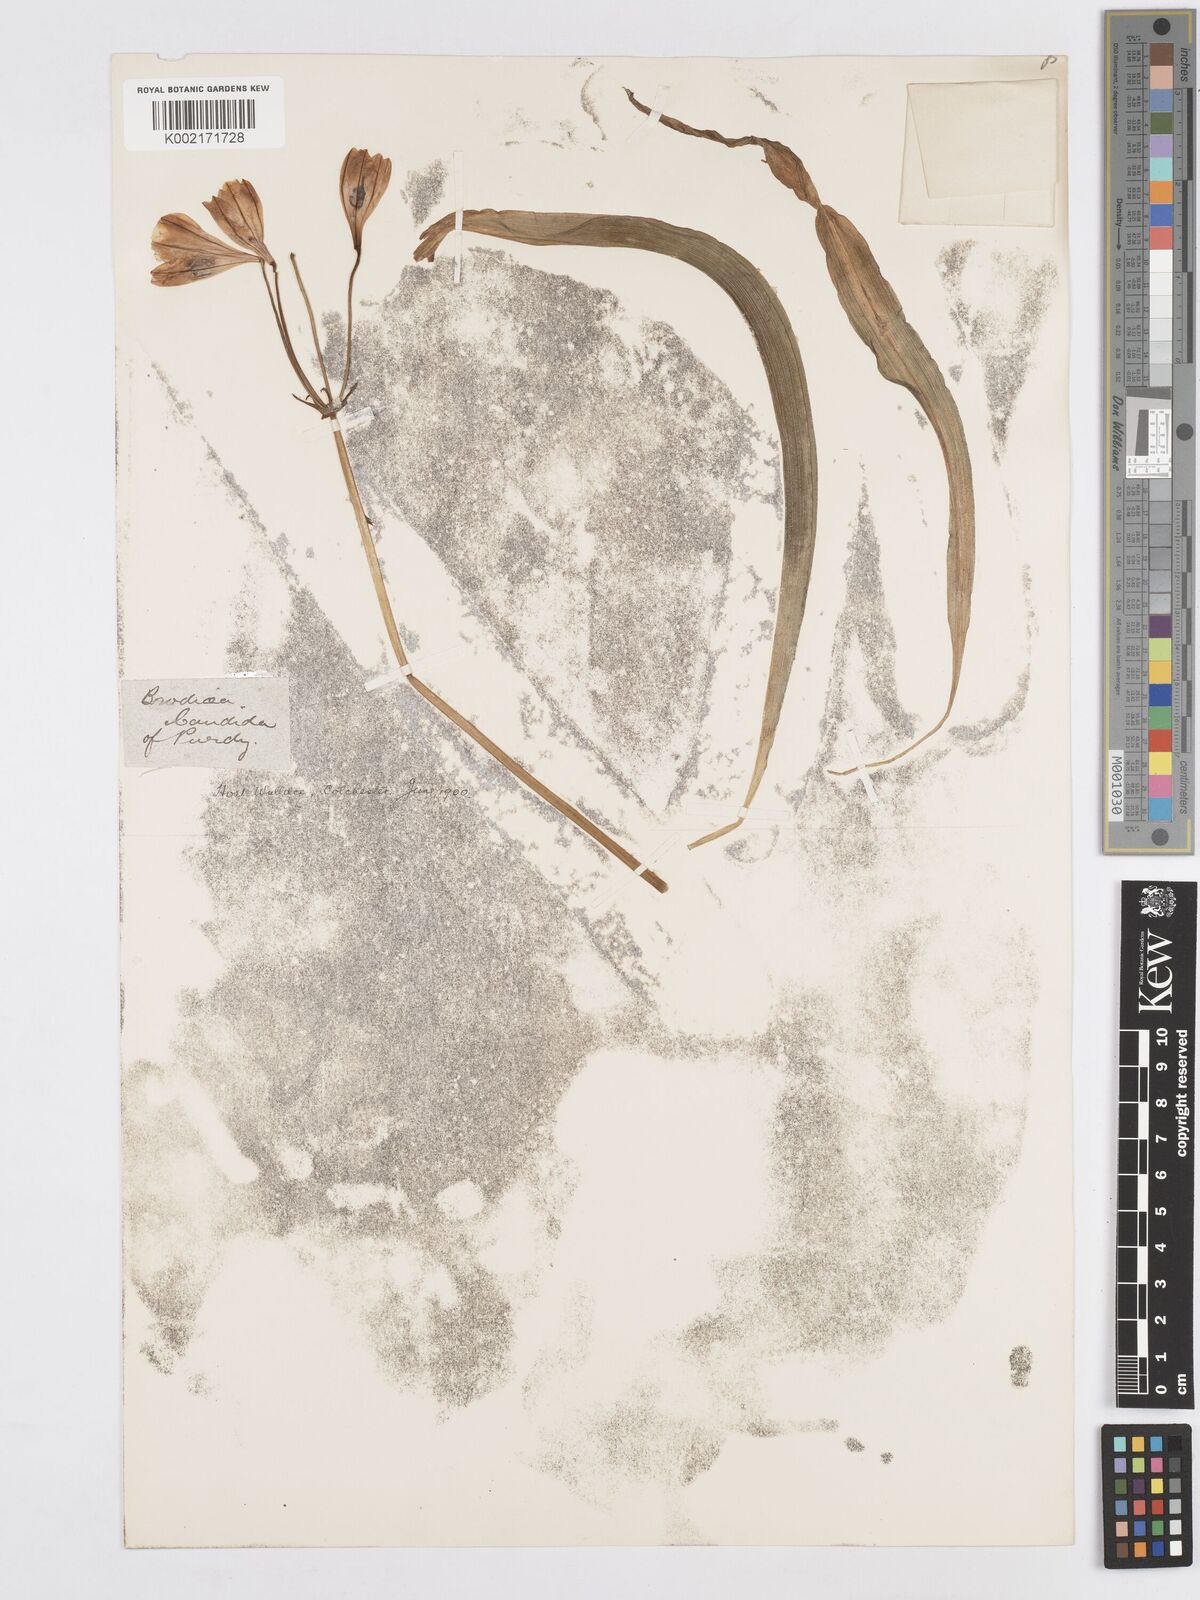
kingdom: Plantae
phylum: Tracheophyta
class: Liliopsida
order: Asparagales
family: Asparagaceae
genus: Triteleia
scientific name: Triteleia laxa
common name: Triplet-lily
